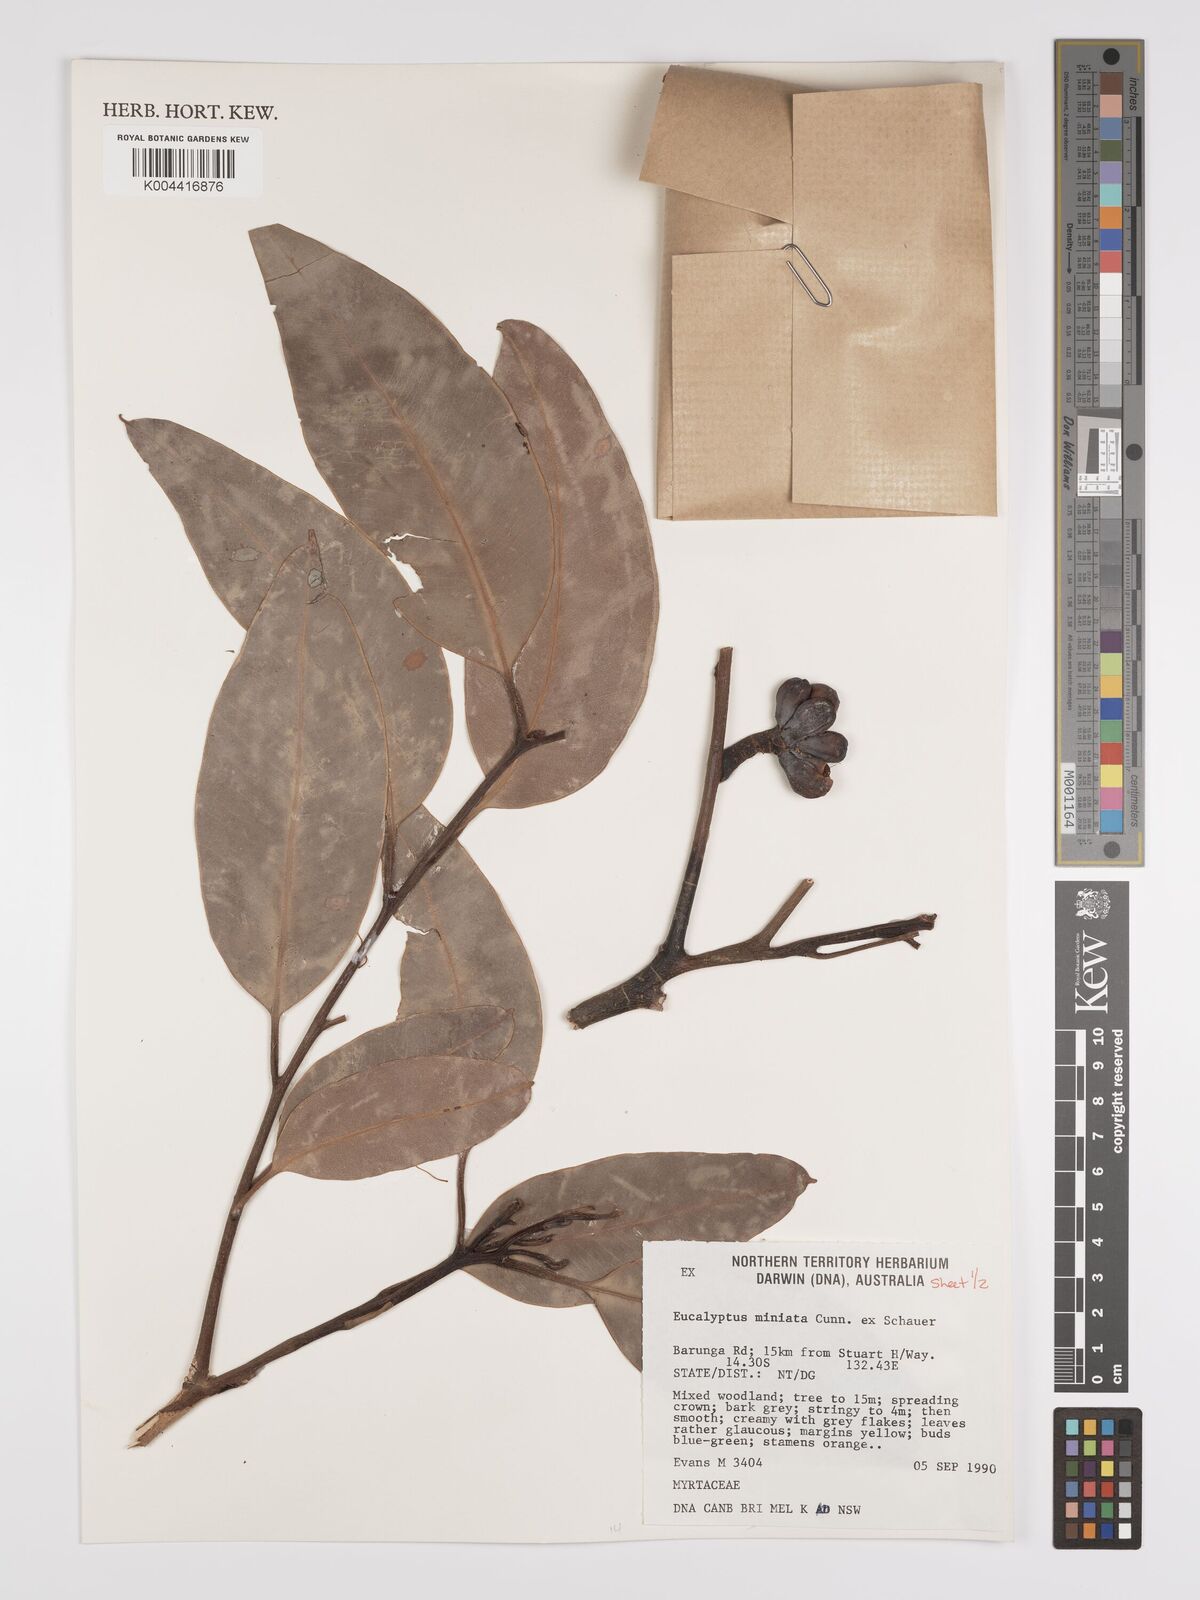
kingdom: Plantae
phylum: Tracheophyta
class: Magnoliopsida
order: Myrtales
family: Myrtaceae
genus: Eucalyptus
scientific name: Eucalyptus miniata
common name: Darwin-woollybutt
